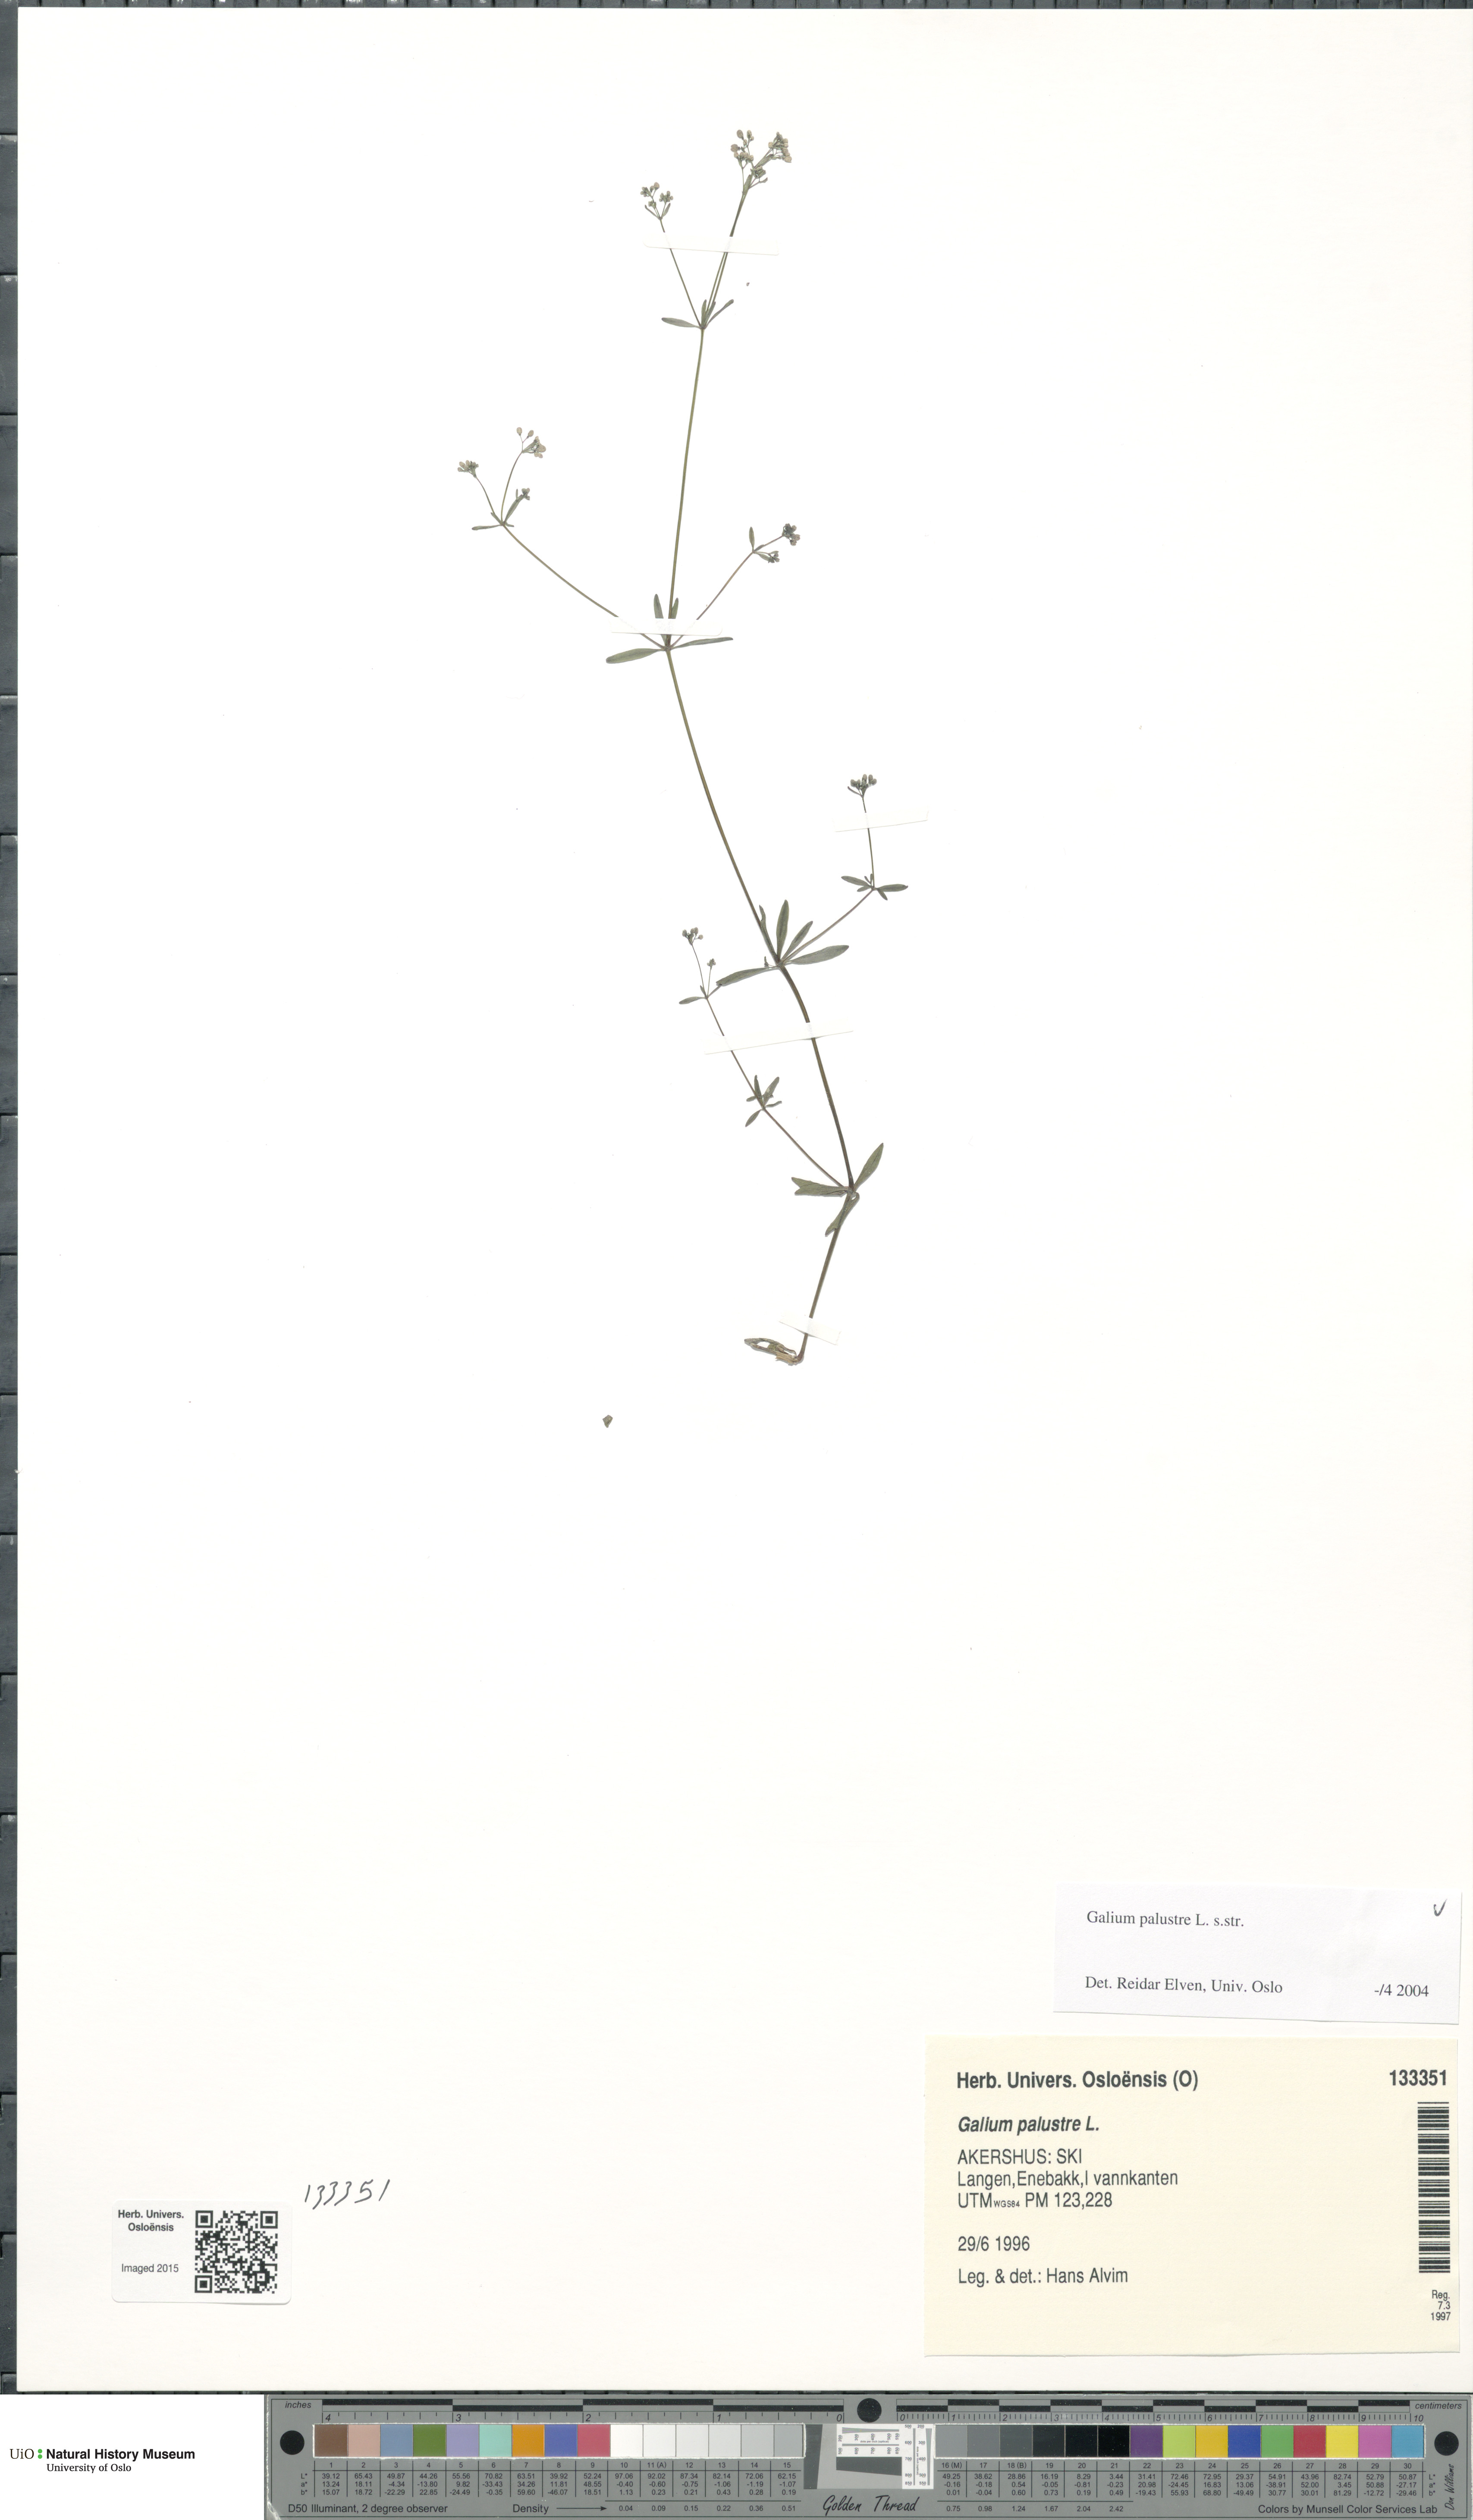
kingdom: Plantae
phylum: Tracheophyta
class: Magnoliopsida
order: Gentianales
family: Rubiaceae
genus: Galium
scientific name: Galium palustre
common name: Common marsh-bedstraw
